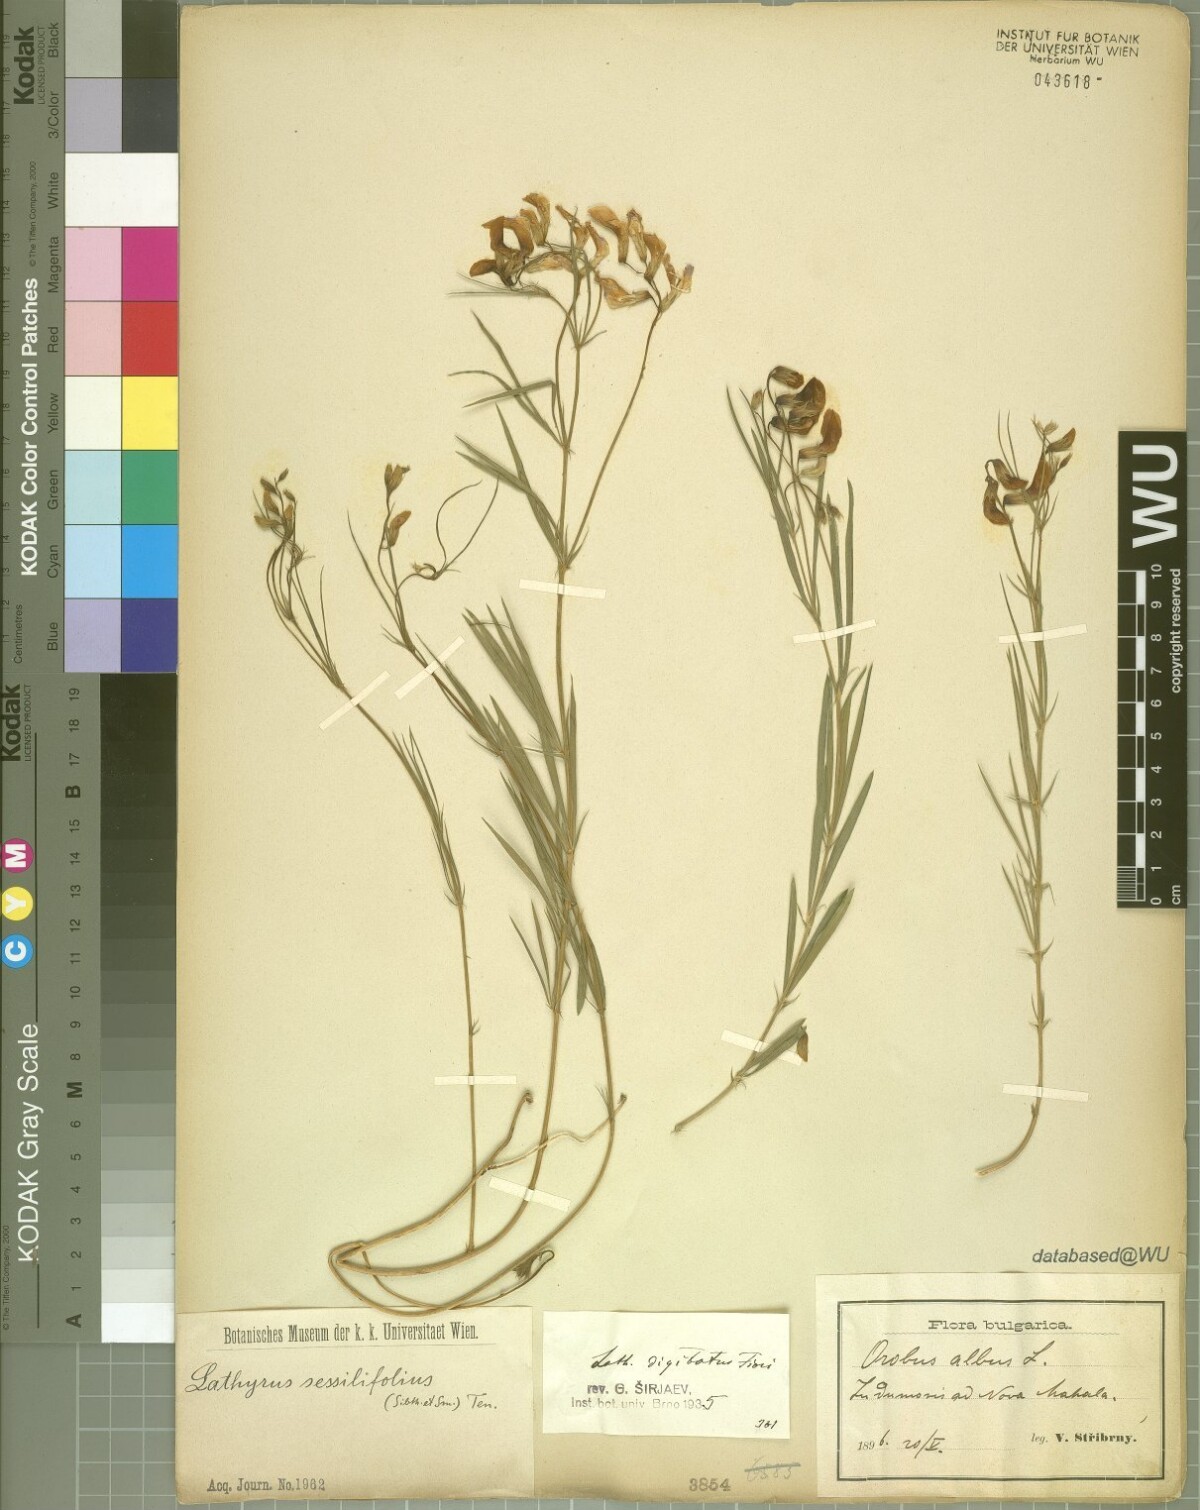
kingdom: Plantae
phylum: Tracheophyta
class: Magnoliopsida
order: Fabales
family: Fabaceae
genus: Lathyrus
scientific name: Lathyrus digitatus
